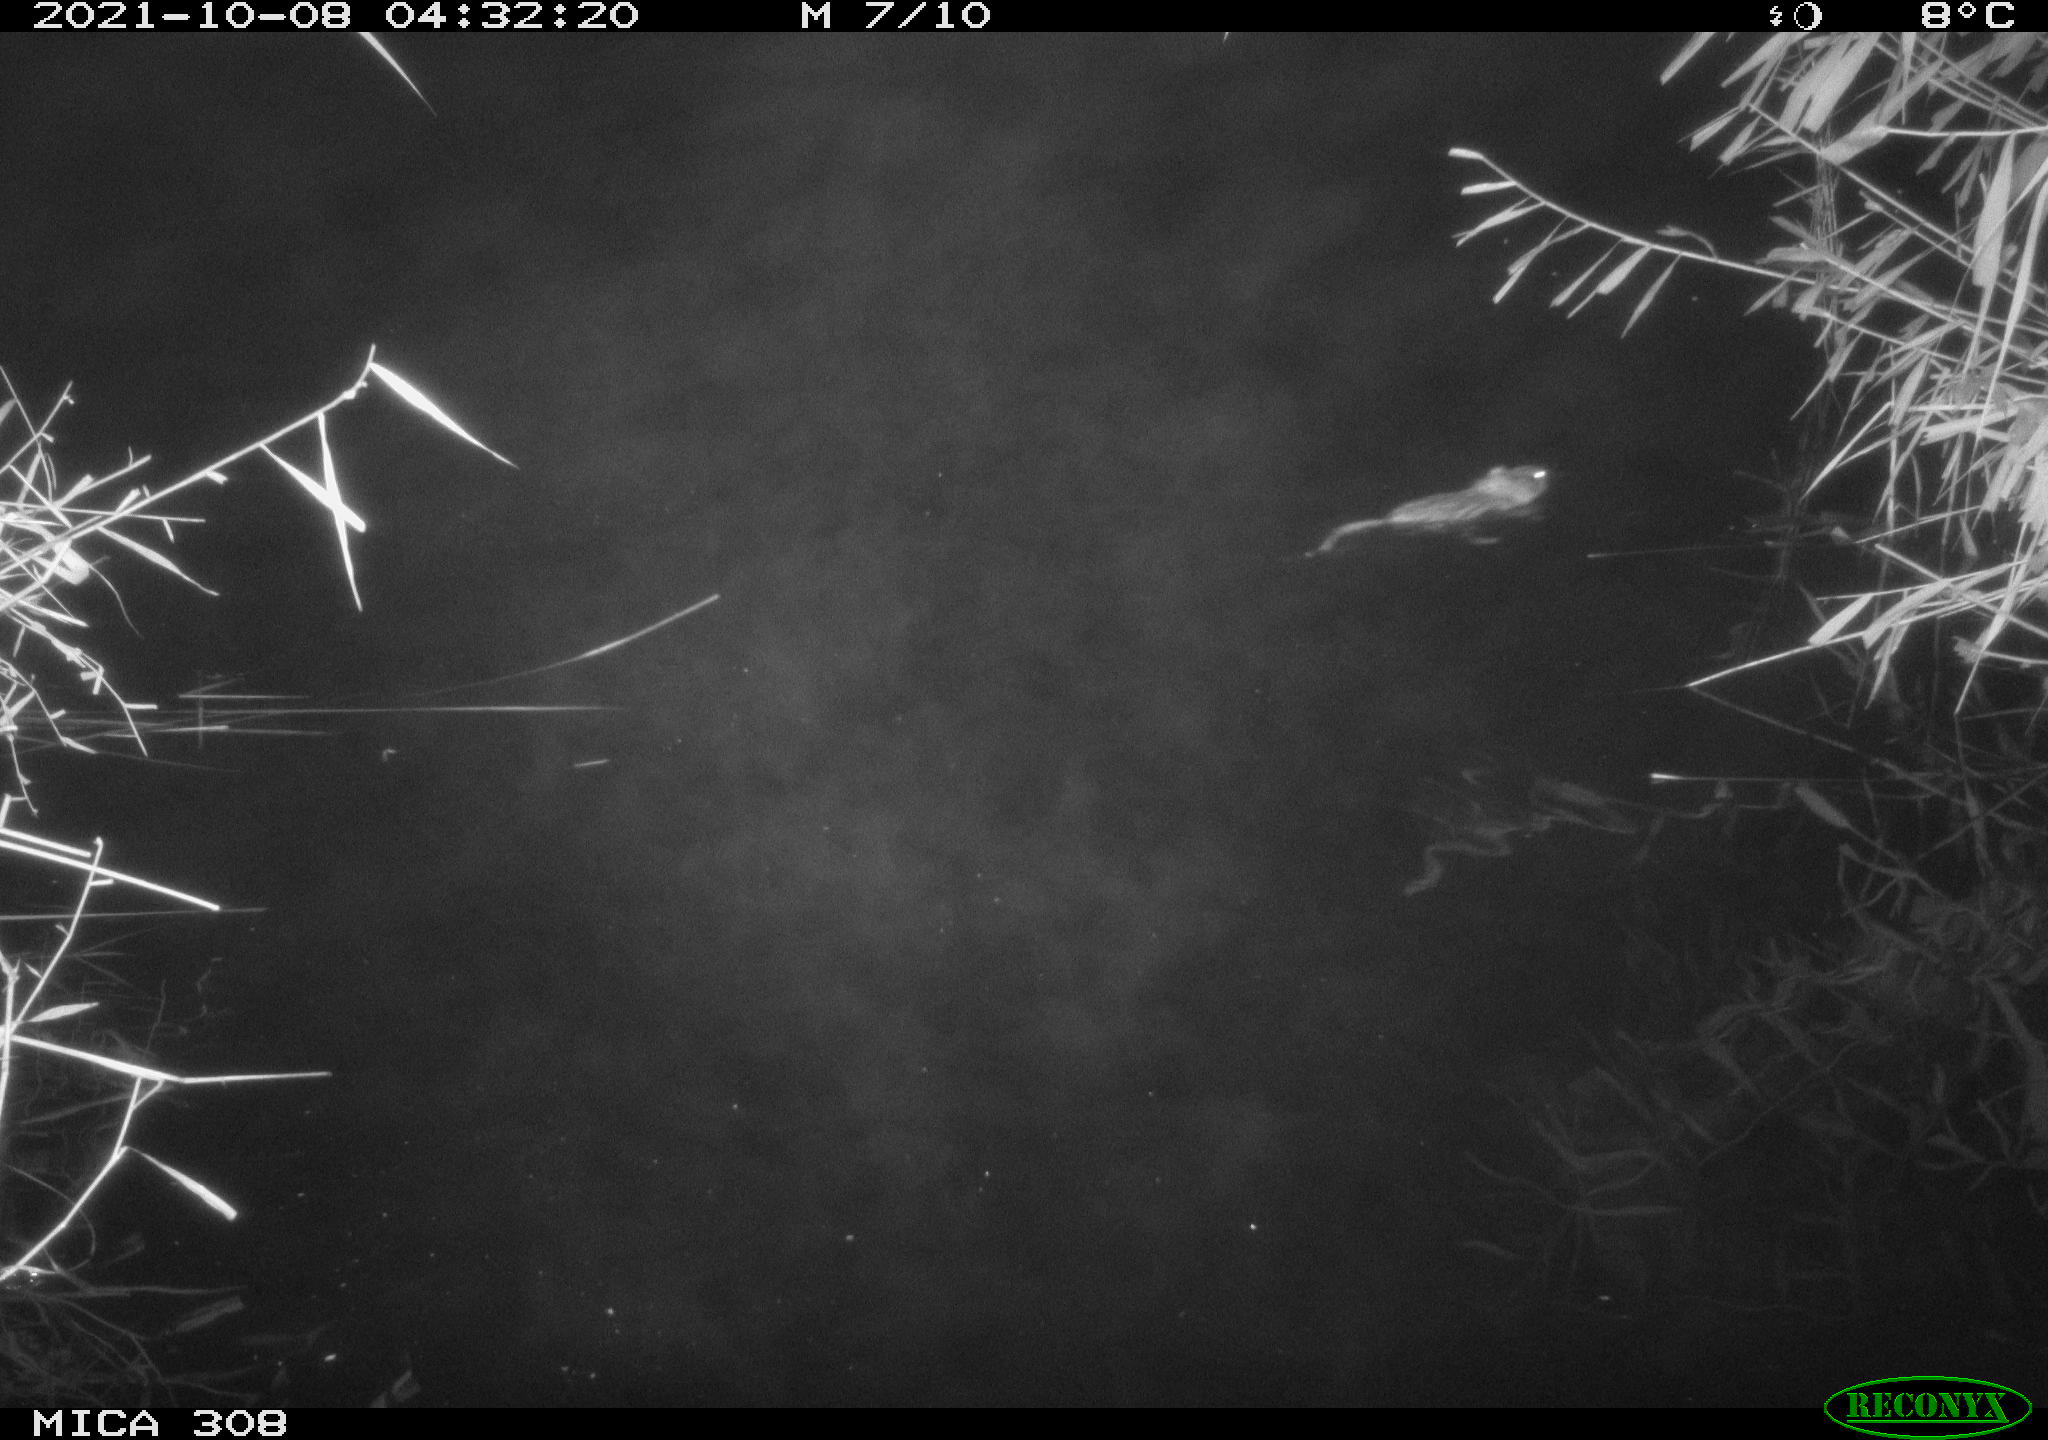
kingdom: Animalia
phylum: Chordata
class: Mammalia
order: Rodentia
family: Cricetidae
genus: Ondatra
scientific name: Ondatra zibethicus
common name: Muskrat
